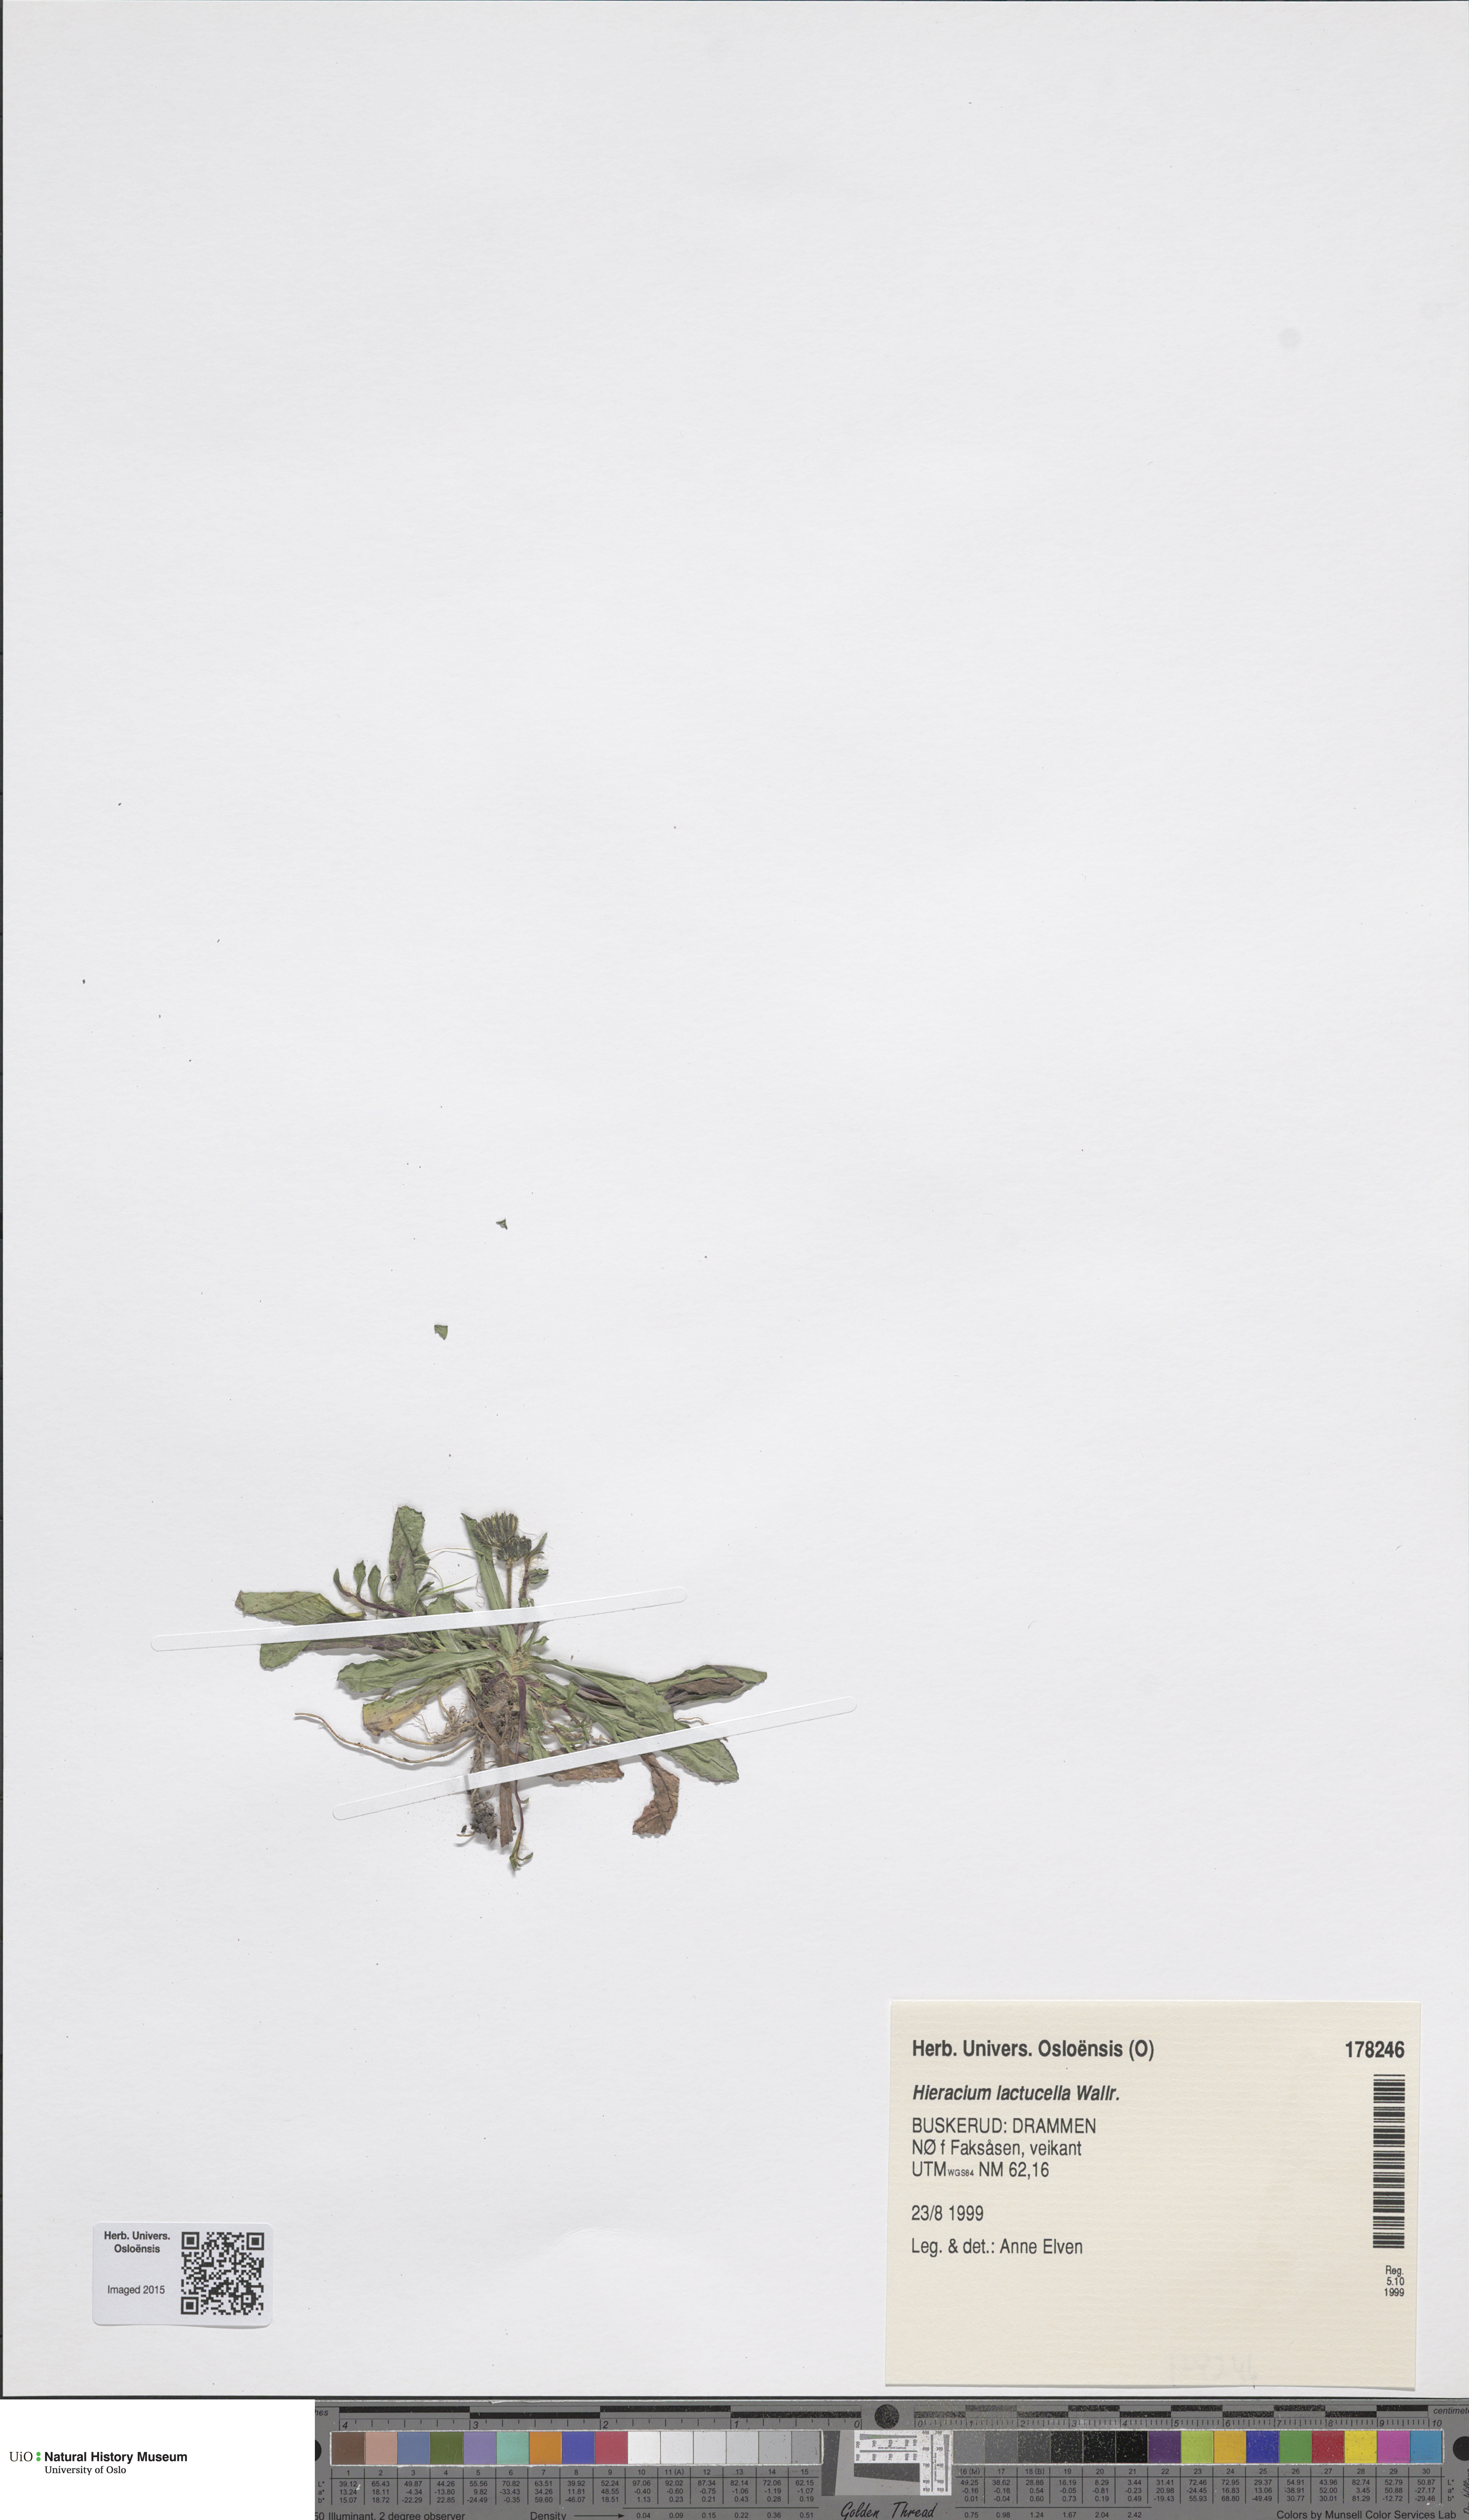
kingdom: Plantae
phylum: Tracheophyta
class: Magnoliopsida
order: Asterales
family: Asteraceae
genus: Pilosella
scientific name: Pilosella lactucella
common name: Glaucous fox-and-cubs
